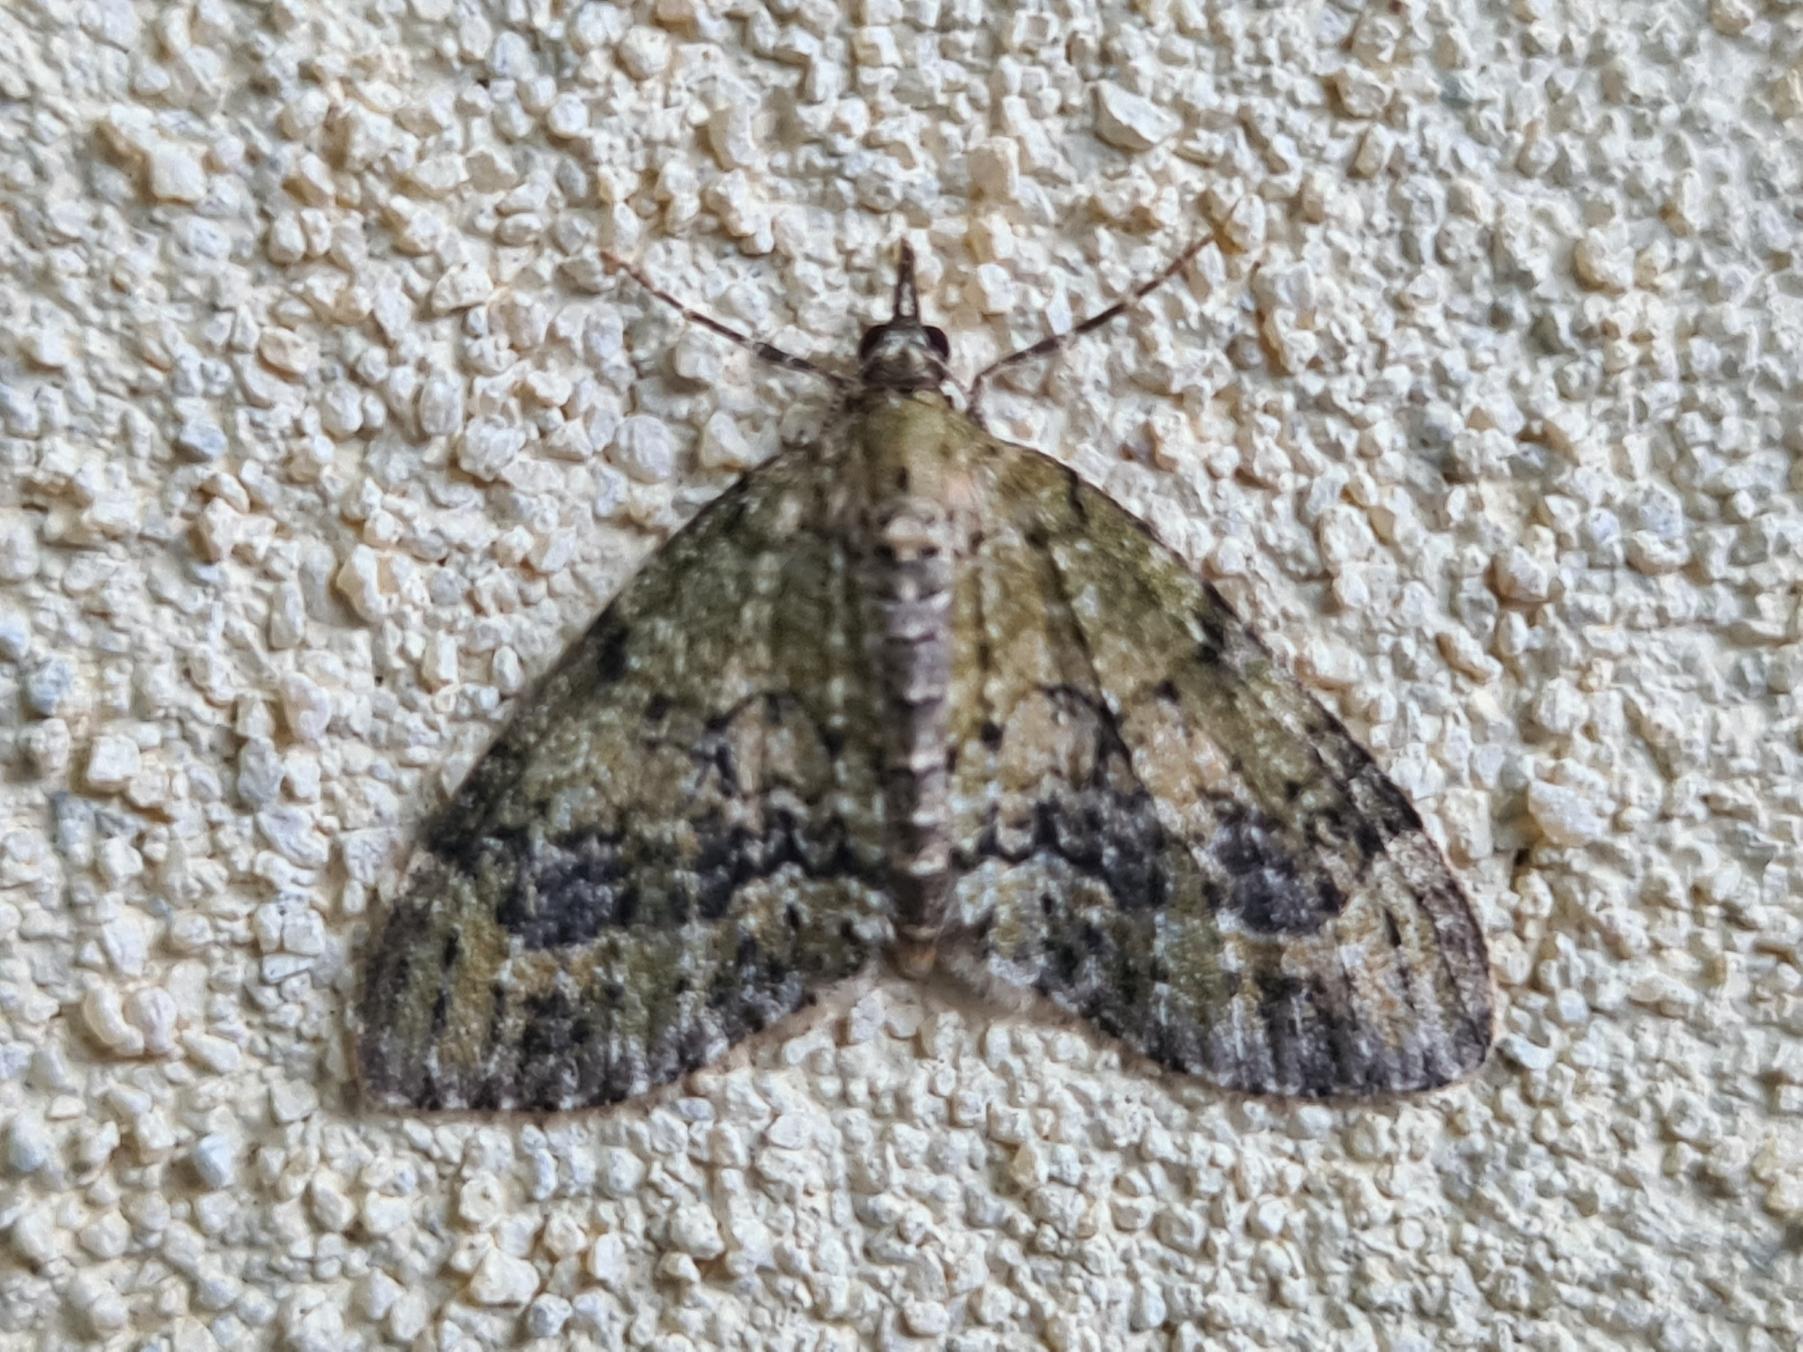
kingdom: Animalia
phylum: Arthropoda
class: Insecta
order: Lepidoptera
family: Geometridae
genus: Acasis
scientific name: Acasis viretata
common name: Tørstetræblomstmåler
